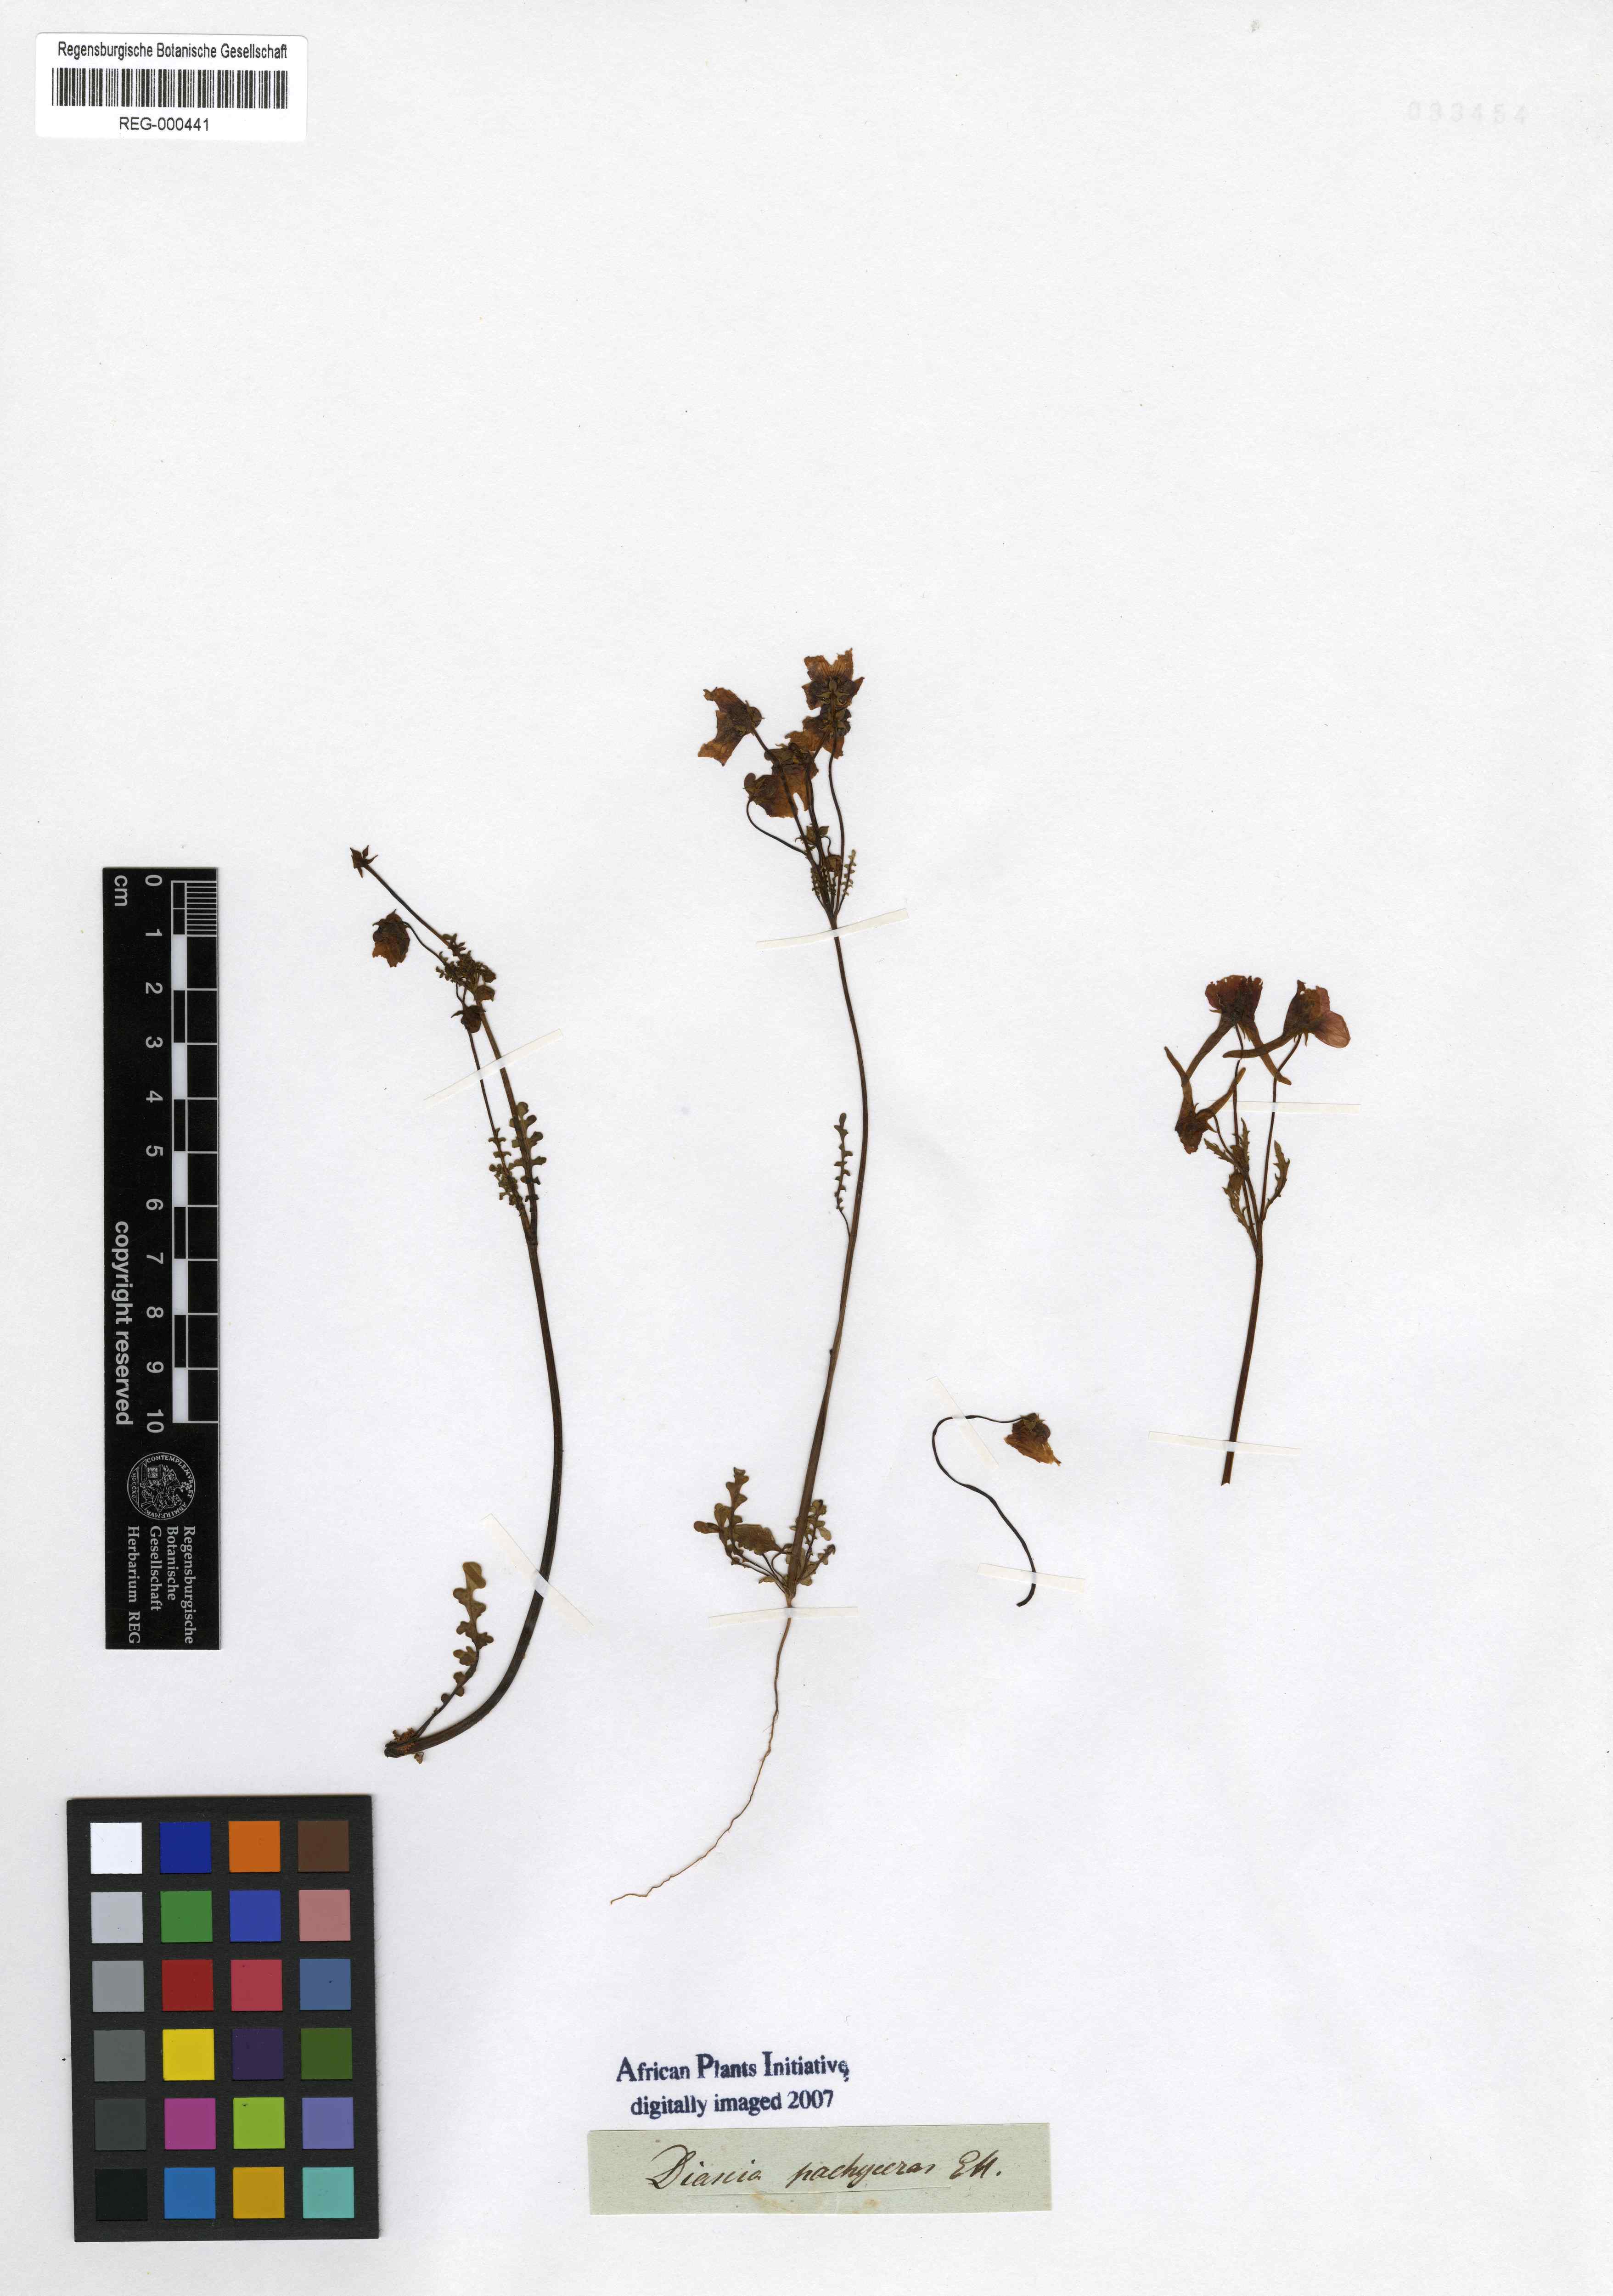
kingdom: Plantae
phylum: Tracheophyta
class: Magnoliopsida
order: Lamiales
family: Scrophulariaceae
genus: Diascia
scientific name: Diascia pachyceras
